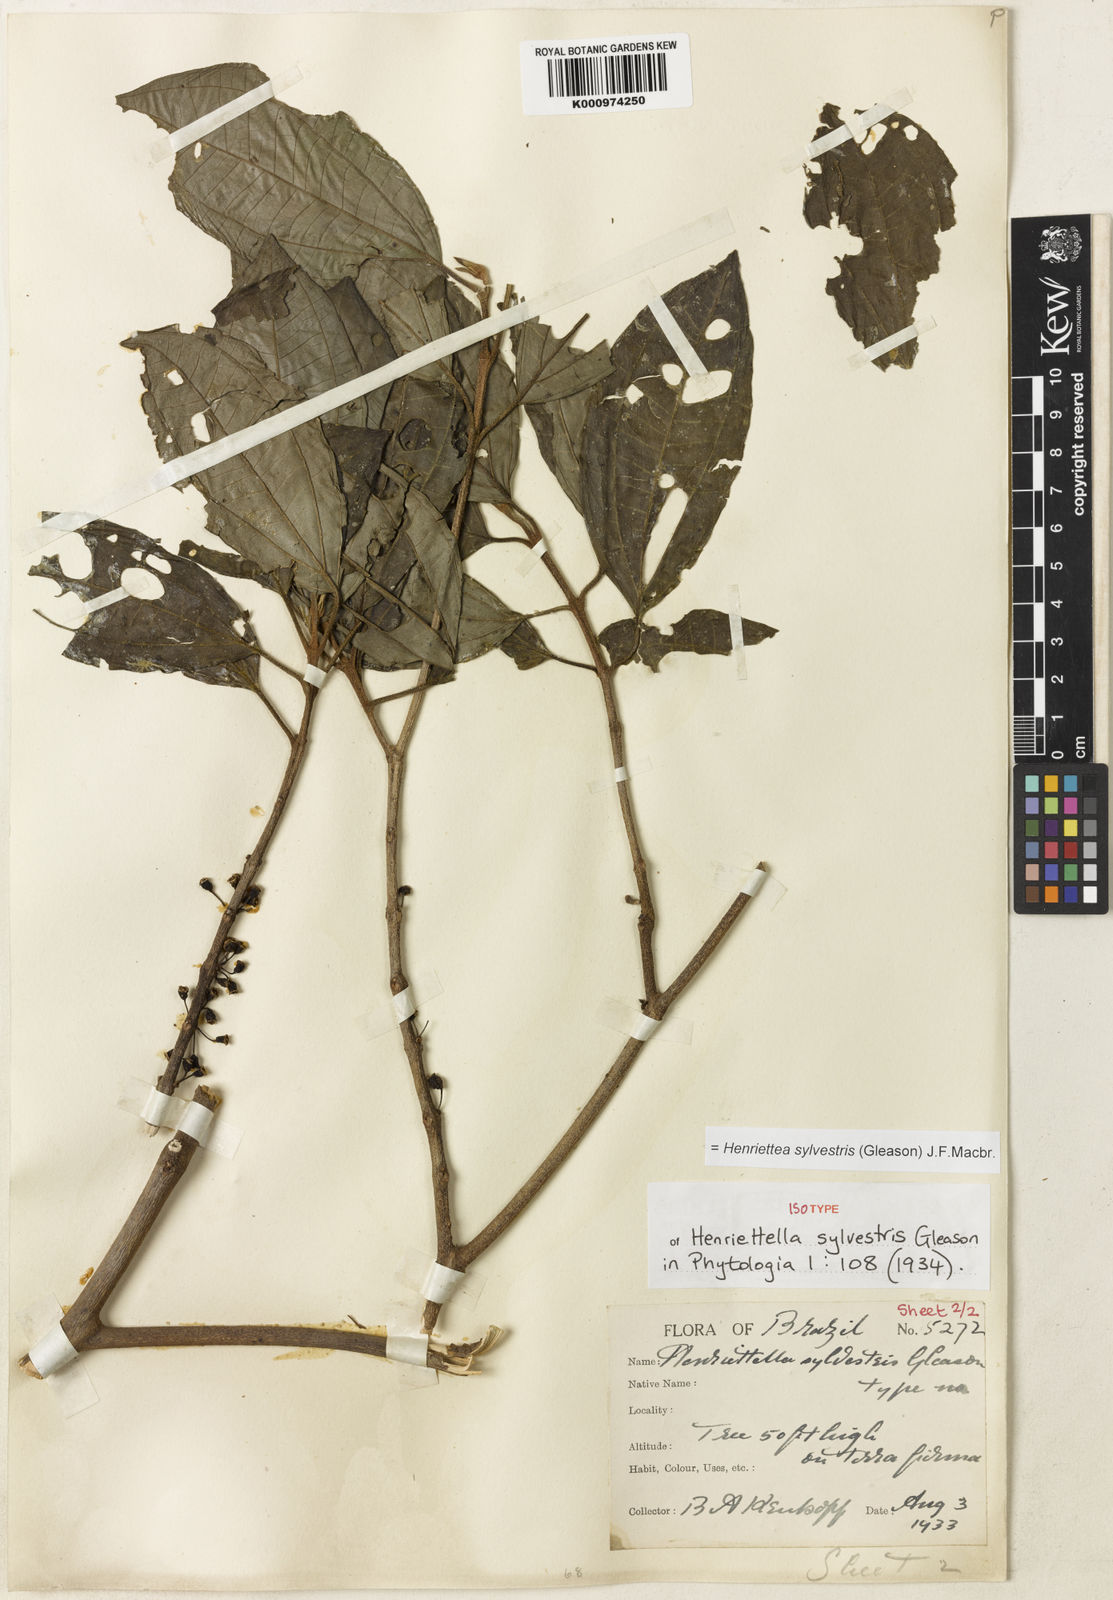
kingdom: Plantae
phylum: Tracheophyta
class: Magnoliopsida
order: Myrtales
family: Melastomataceae
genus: Henriettea
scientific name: Henriettea sylvestris
